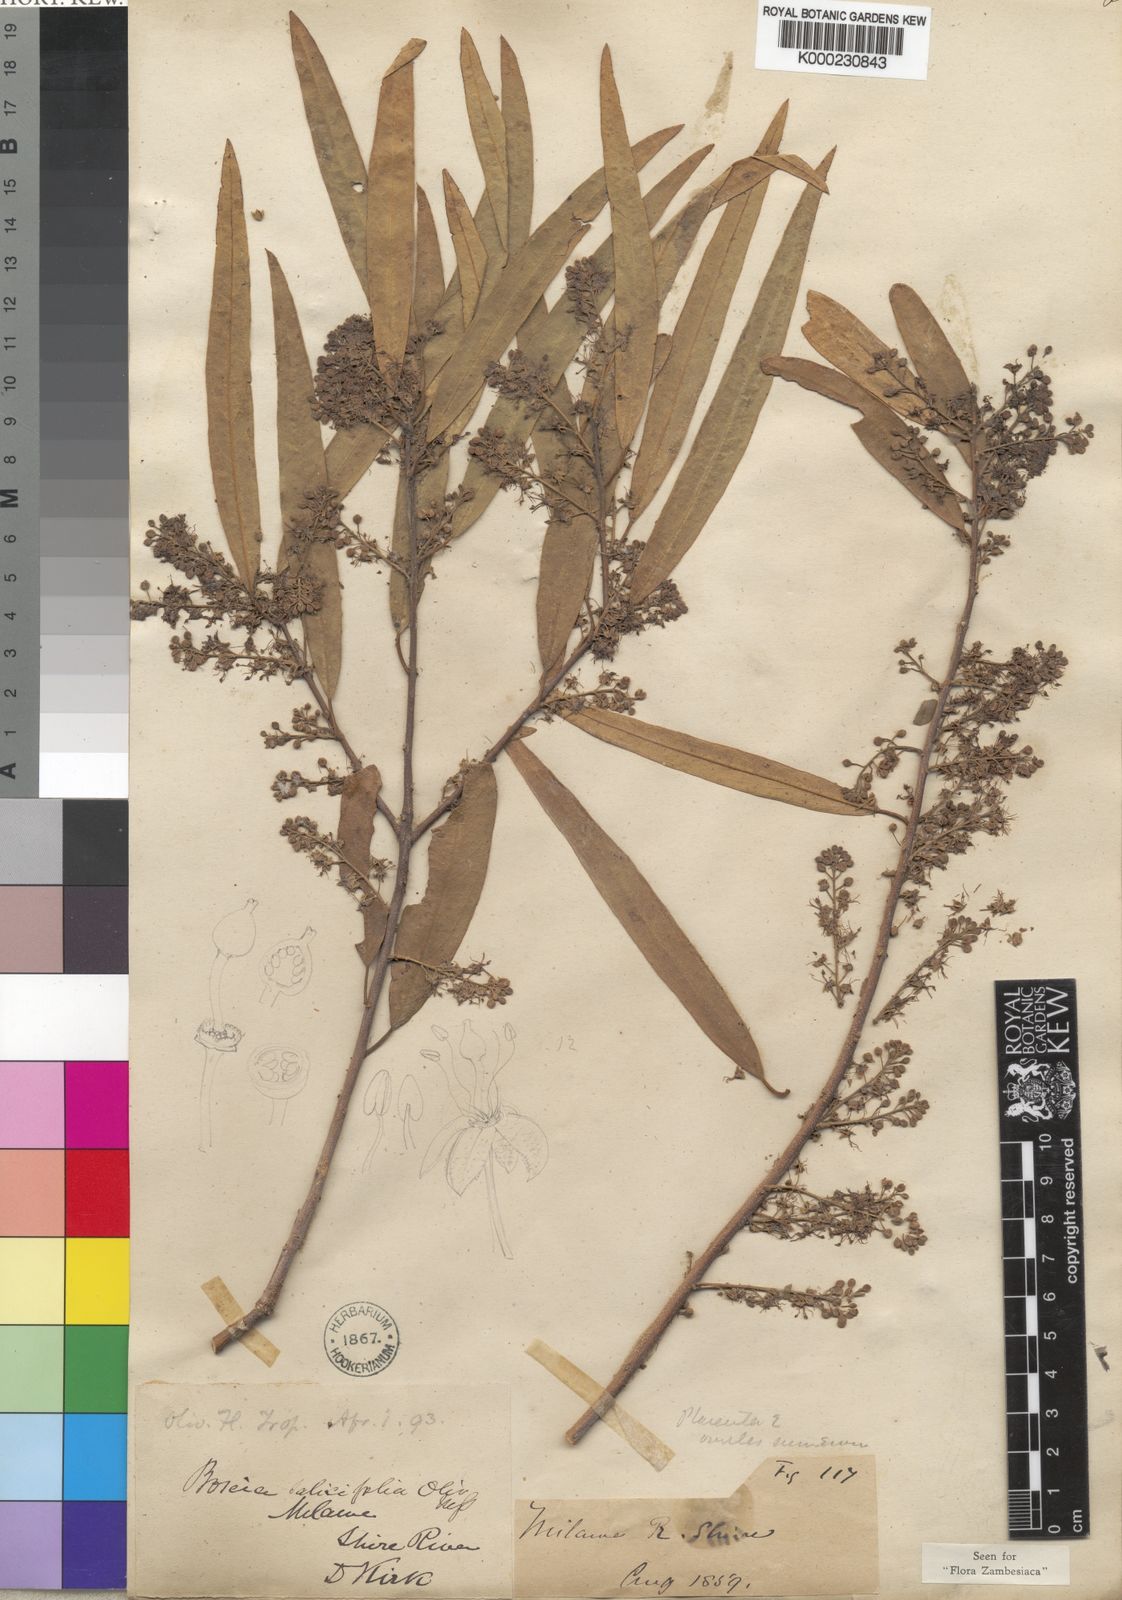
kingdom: Plantae
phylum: Tracheophyta
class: Magnoliopsida
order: Brassicales
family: Capparaceae
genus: Boscia
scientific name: Boscia salicifolia
